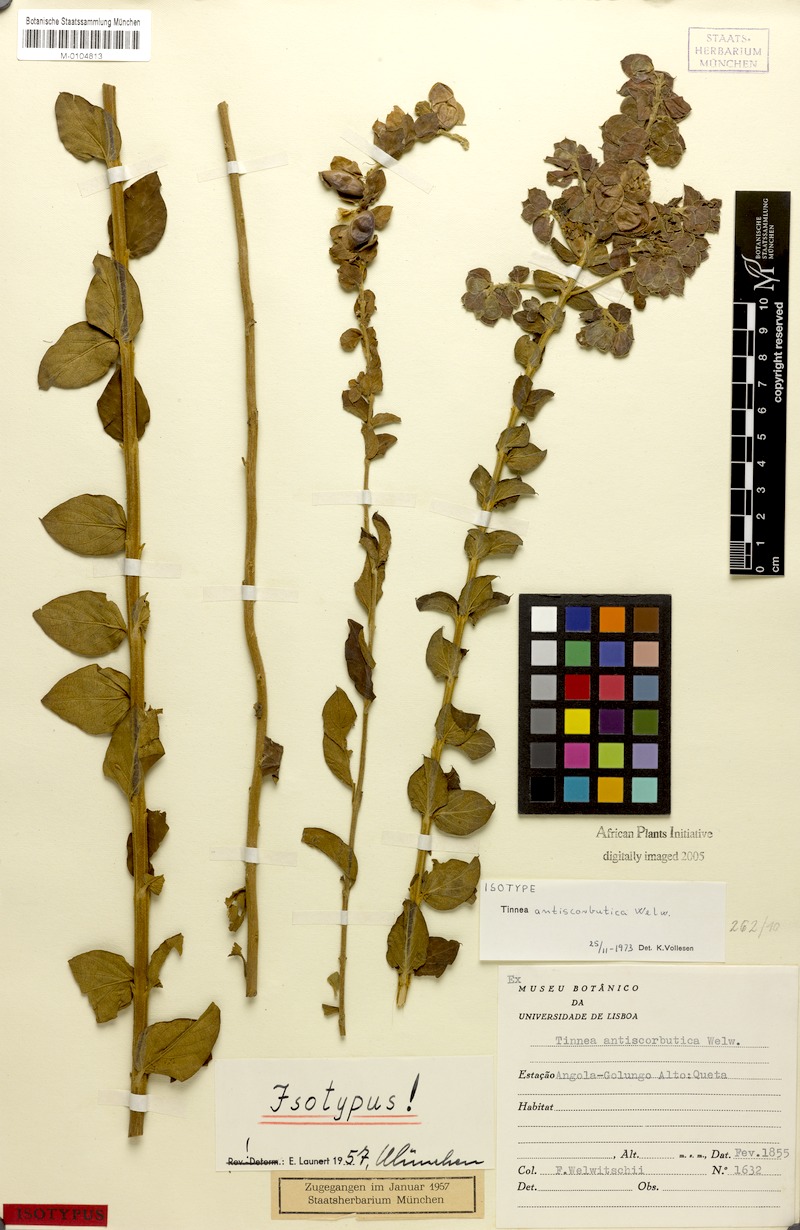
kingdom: Plantae
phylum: Tracheophyta
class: Magnoliopsida
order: Lamiales
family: Lamiaceae
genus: Tinnea
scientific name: Tinnea antiscorbutica
